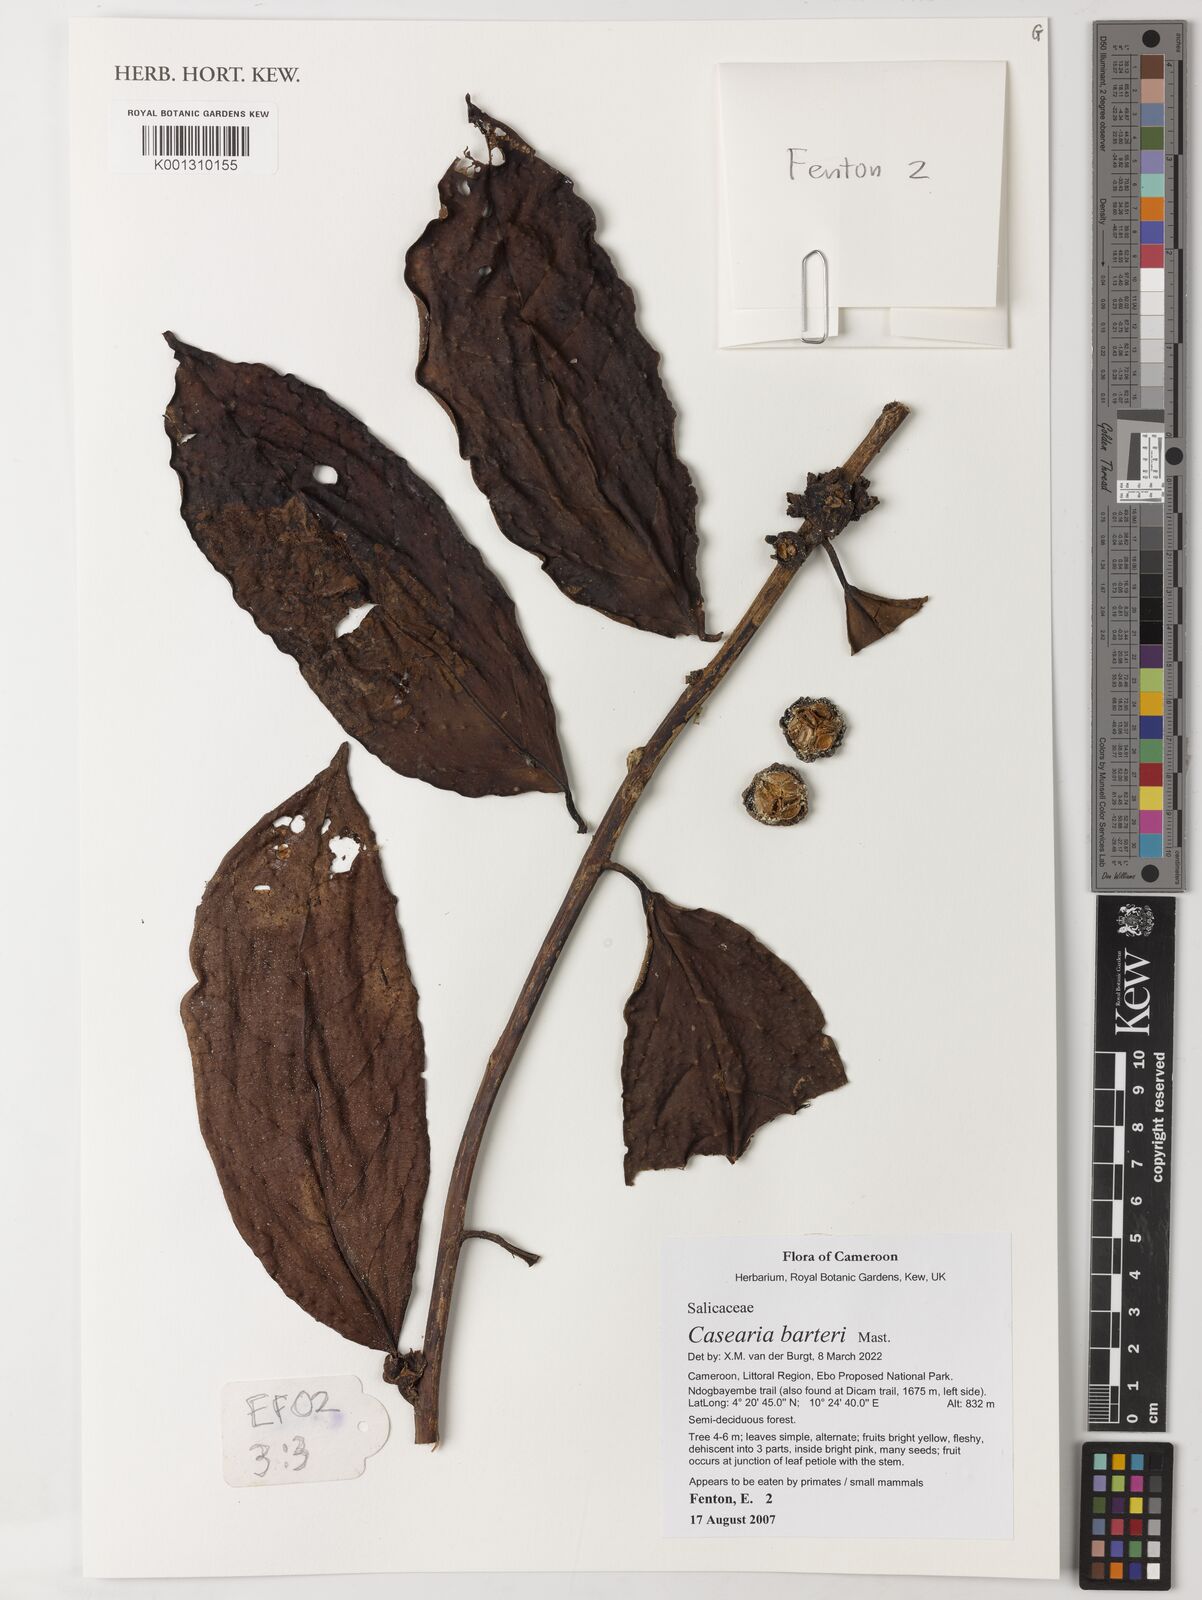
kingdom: Plantae
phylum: Tracheophyta
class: Magnoliopsida
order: Malpighiales
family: Salicaceae
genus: Casearia
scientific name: Casearia barteri
